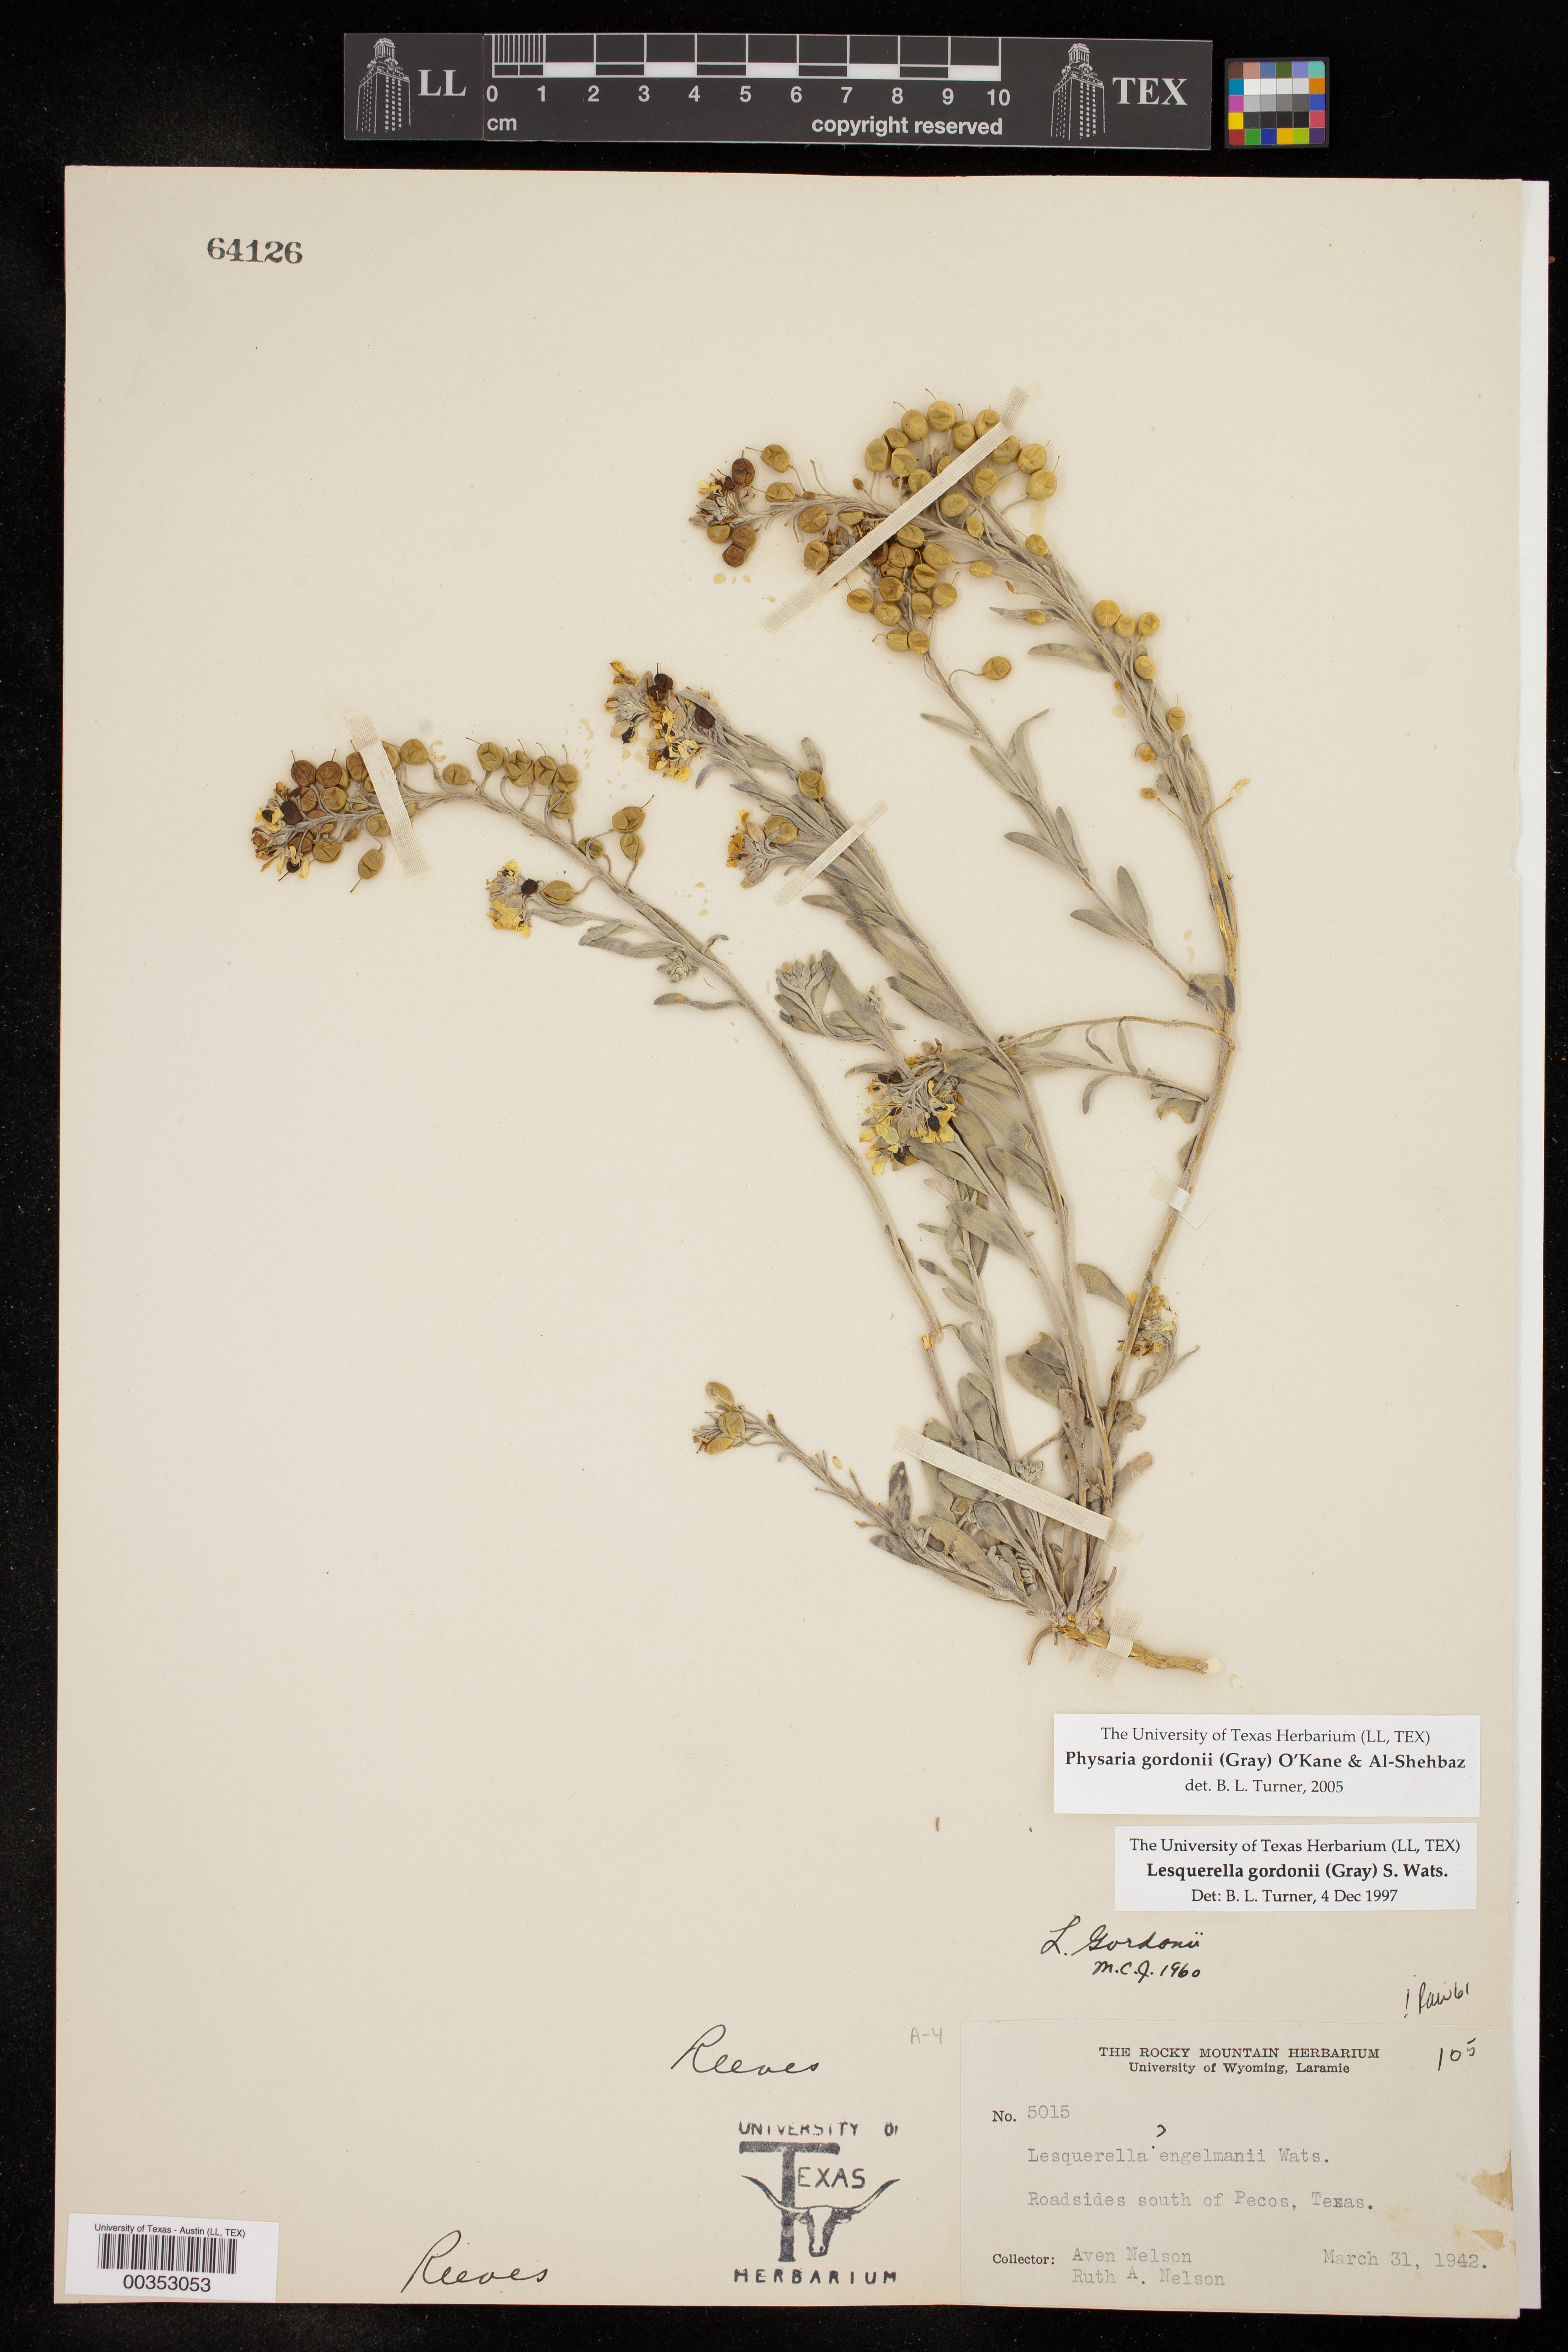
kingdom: Plantae
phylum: Tracheophyta
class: Magnoliopsida
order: Brassicales
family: Brassicaceae
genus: Physaria
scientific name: Physaria gordonii
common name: Gordon's bladderpod
